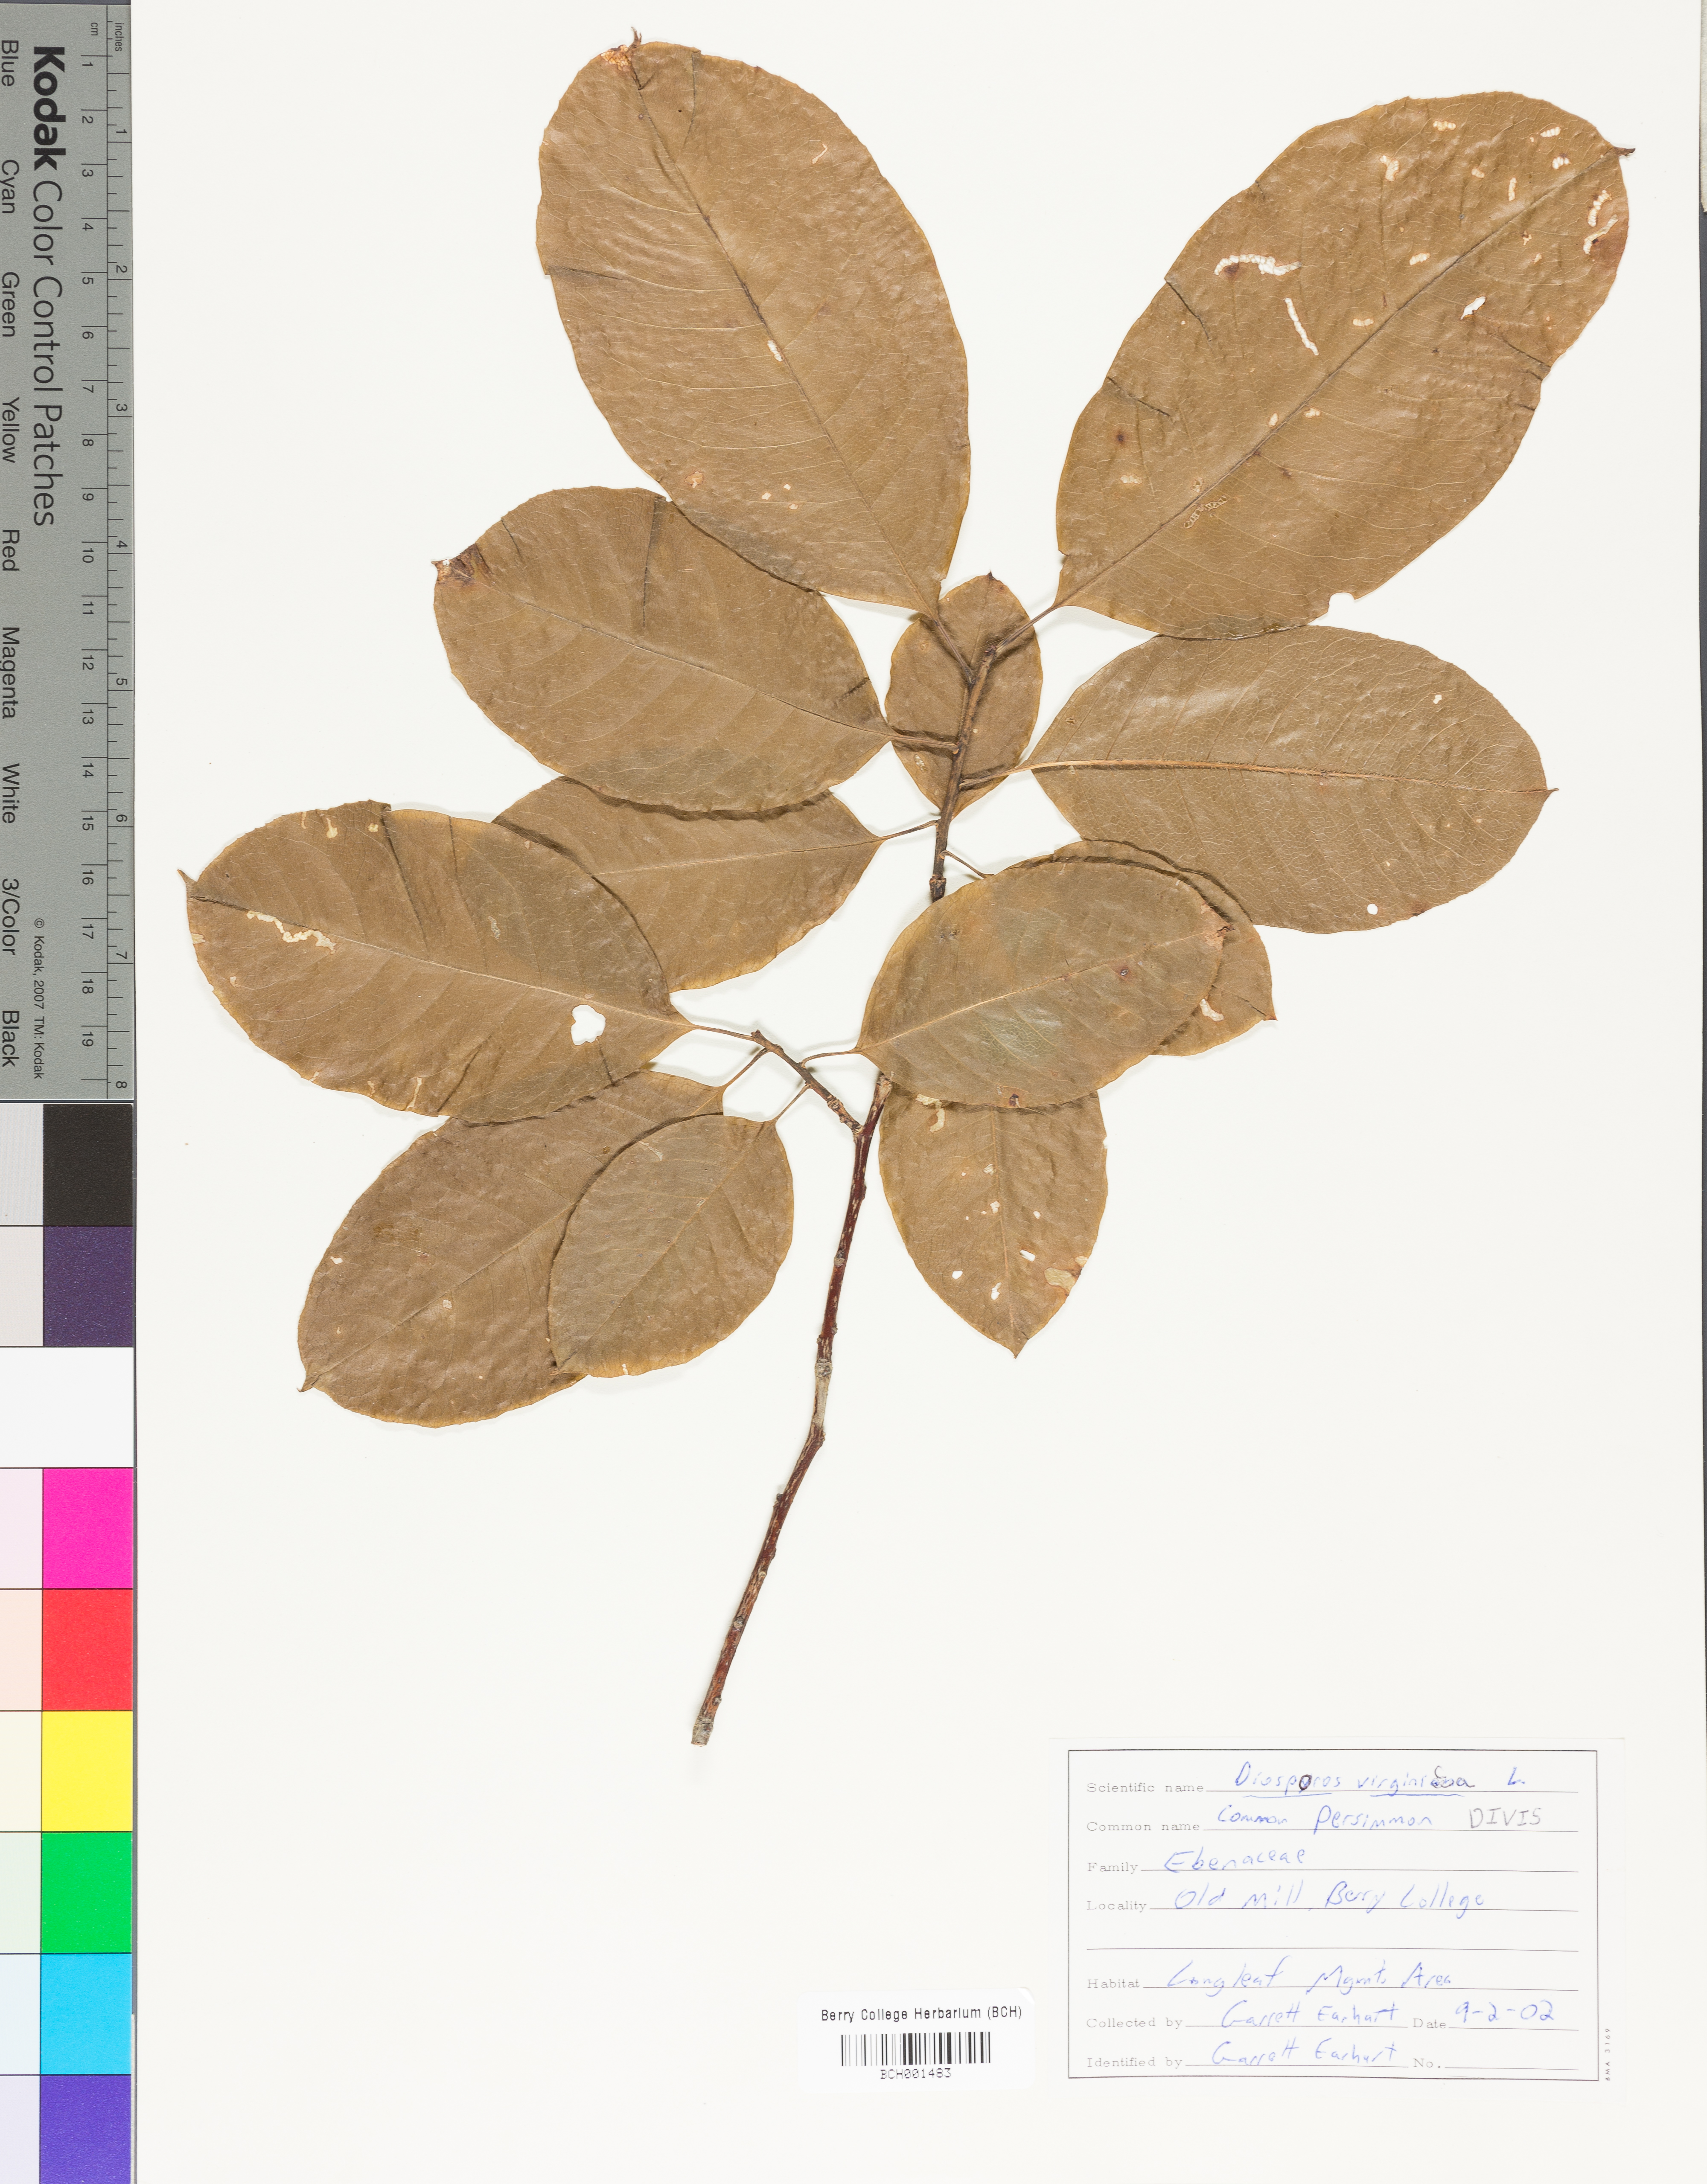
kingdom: Plantae
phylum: Tracheophyta
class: Magnoliopsida
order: Ericales
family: Ebenaceae
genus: Diospyros
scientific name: Diospyros virginiana
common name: Persimmon
